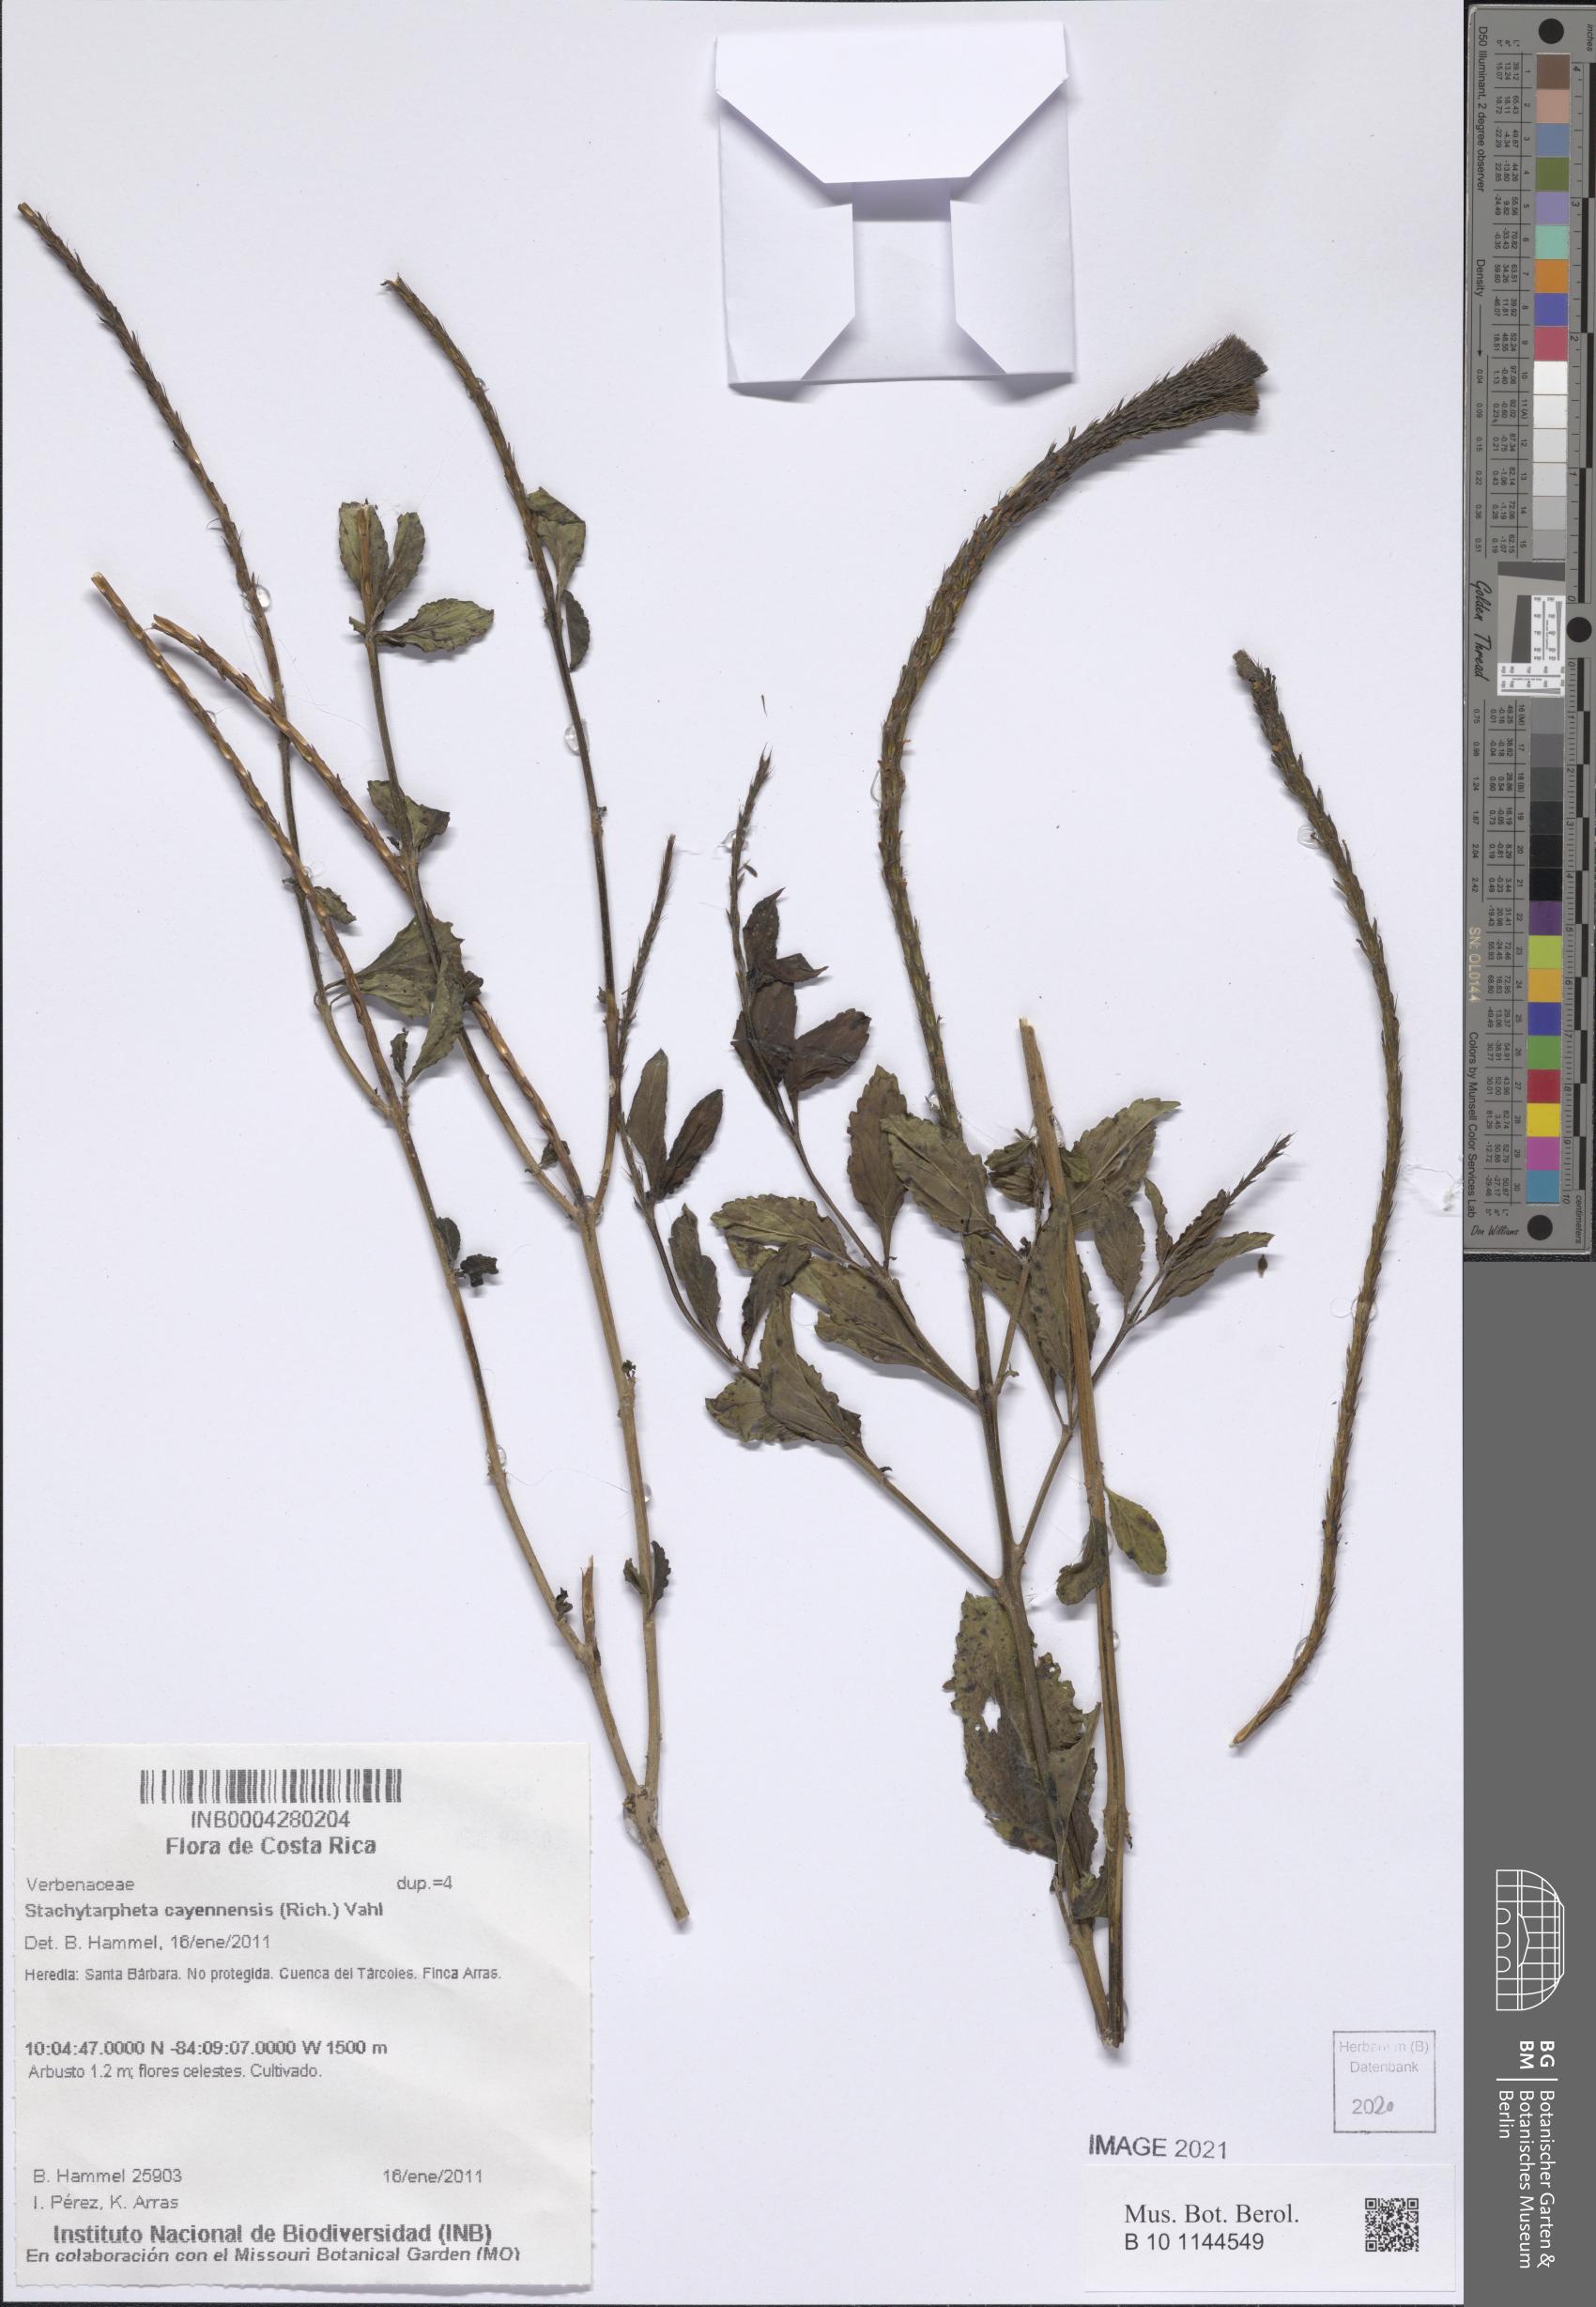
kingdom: Plantae
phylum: Tracheophyta
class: Magnoliopsida
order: Lamiales
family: Verbenaceae
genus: Stachytarpheta
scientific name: Stachytarpheta cayennensis
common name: Cayenne porterweed
